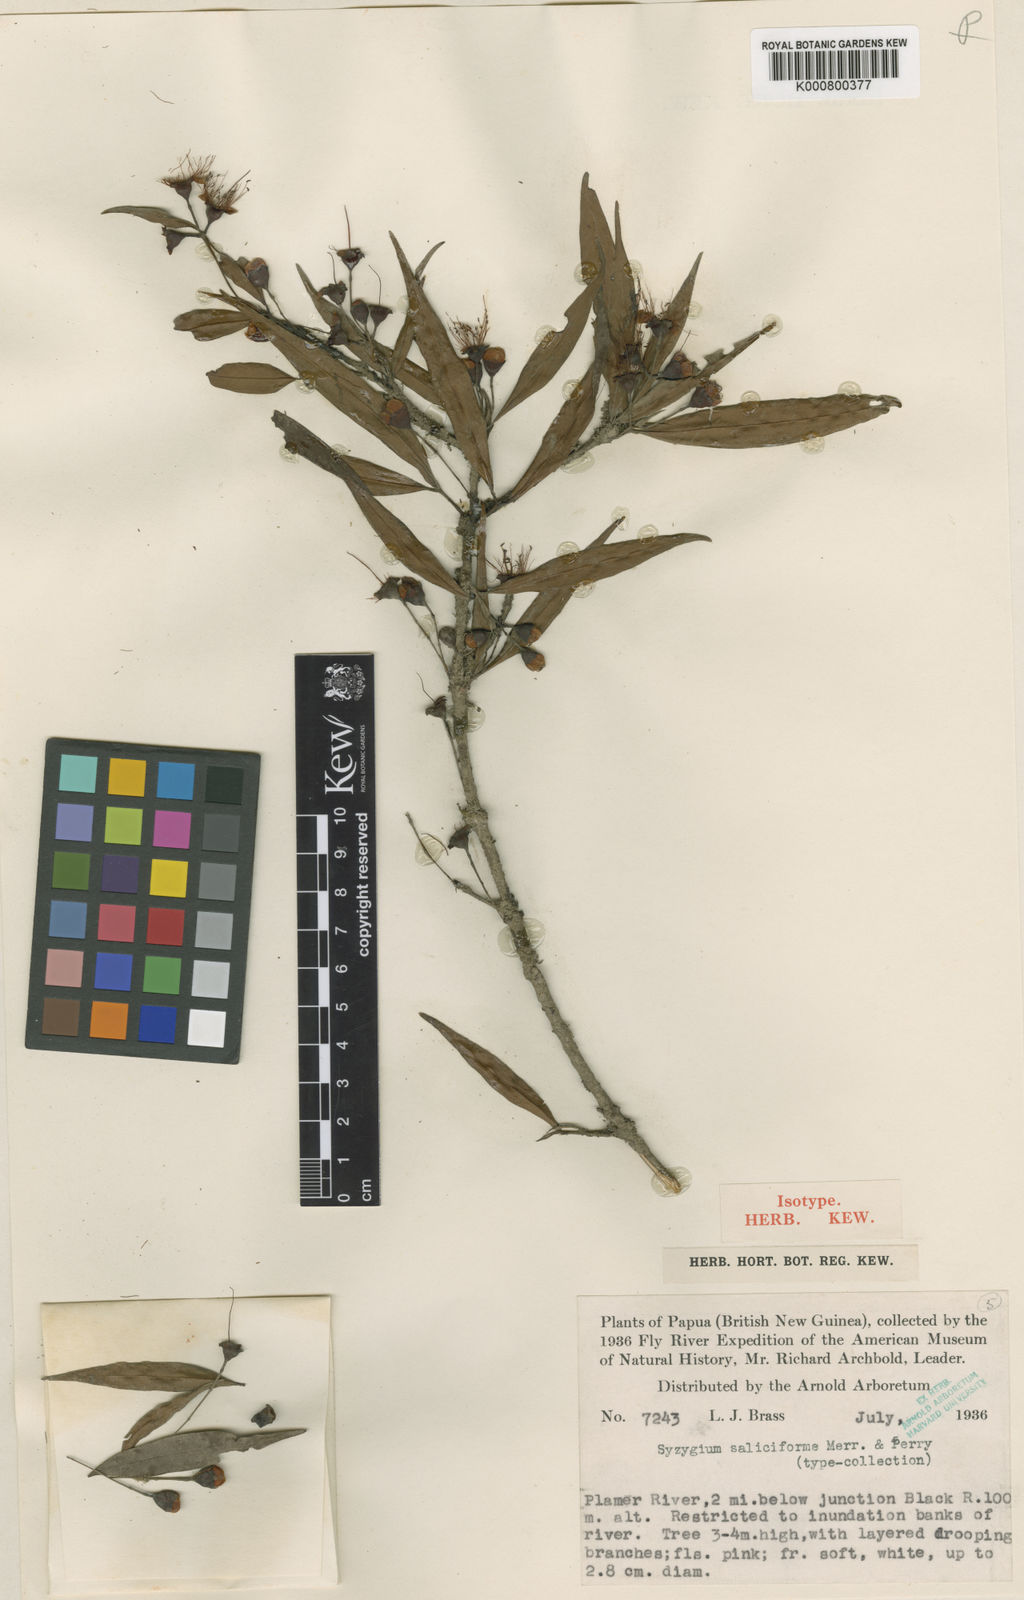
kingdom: Plantae
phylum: Tracheophyta
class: Magnoliopsida
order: Myrtales
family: Myrtaceae
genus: Syzygium
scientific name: Syzygium saliciforme
